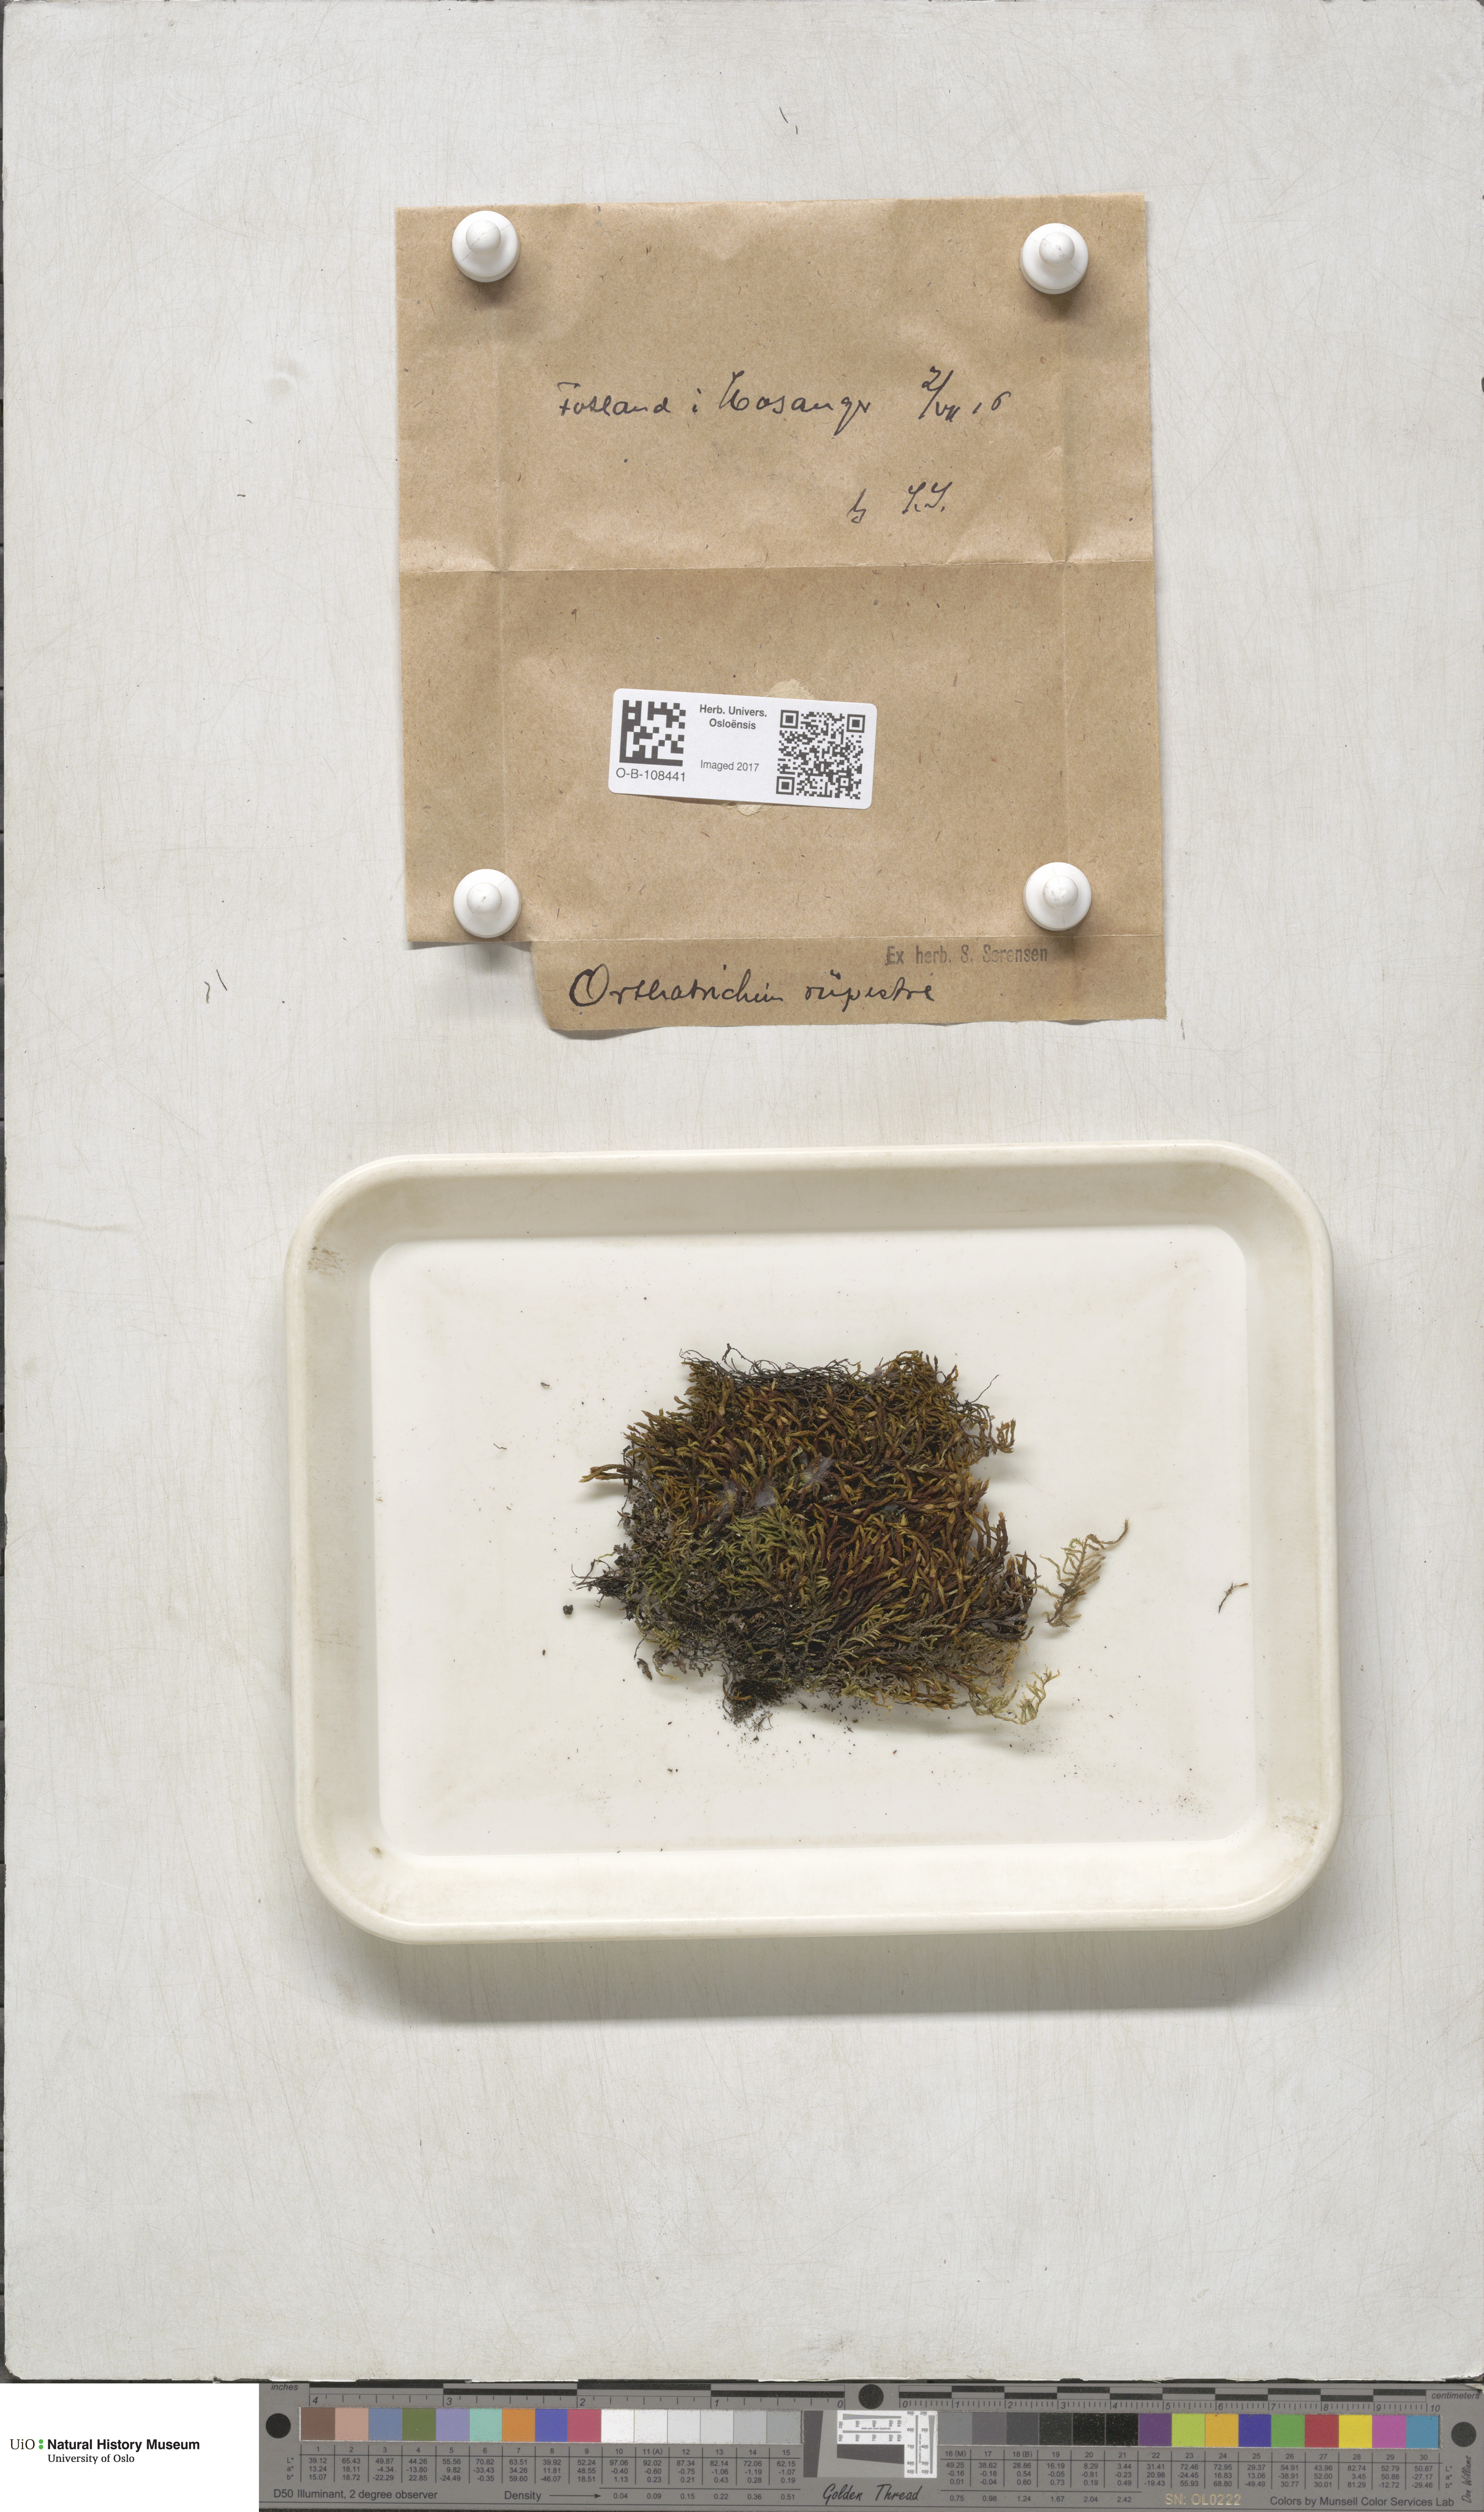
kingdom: Plantae
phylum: Bryophyta
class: Bryopsida
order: Orthotrichales
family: Orthotrichaceae
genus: Lewinskya
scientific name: Lewinskya rupestris
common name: Rock bristle-moss
